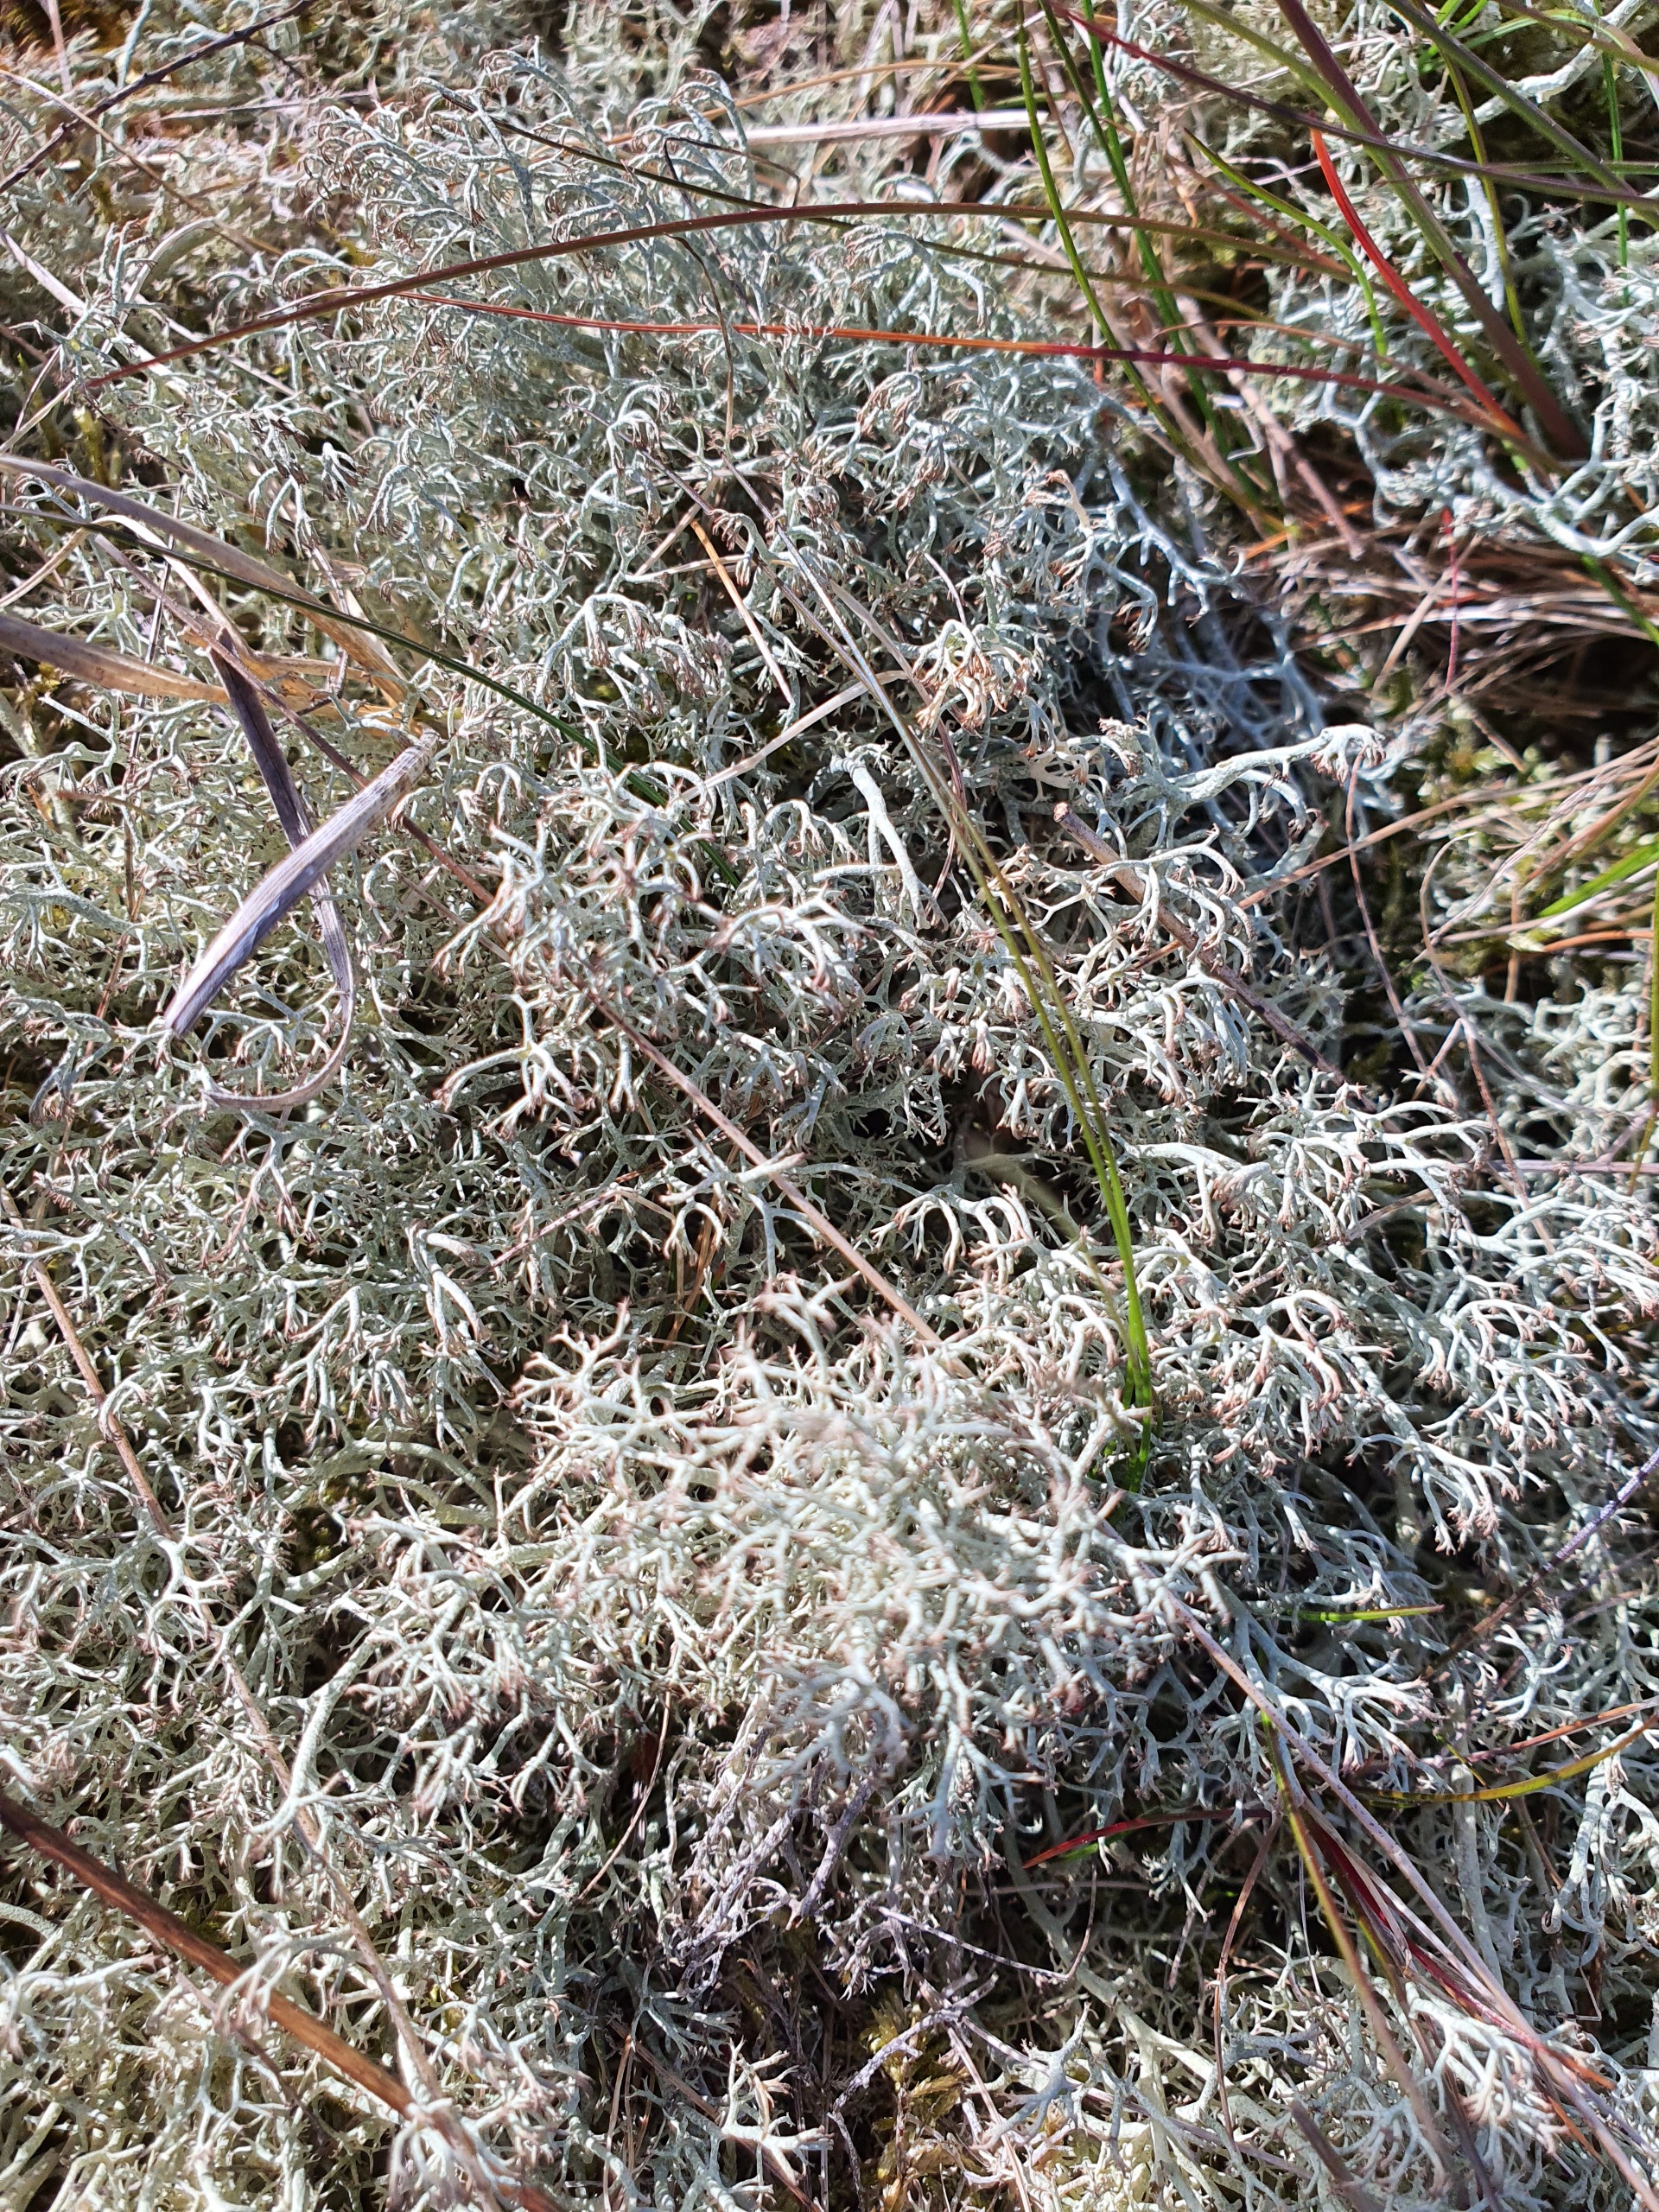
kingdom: Fungi
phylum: Ascomycota
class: Lecanoromycetes
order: Lecanorales
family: Cladoniaceae
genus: Cladonia
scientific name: Cladonia ciliata
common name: Spinkel rensdyrlav
